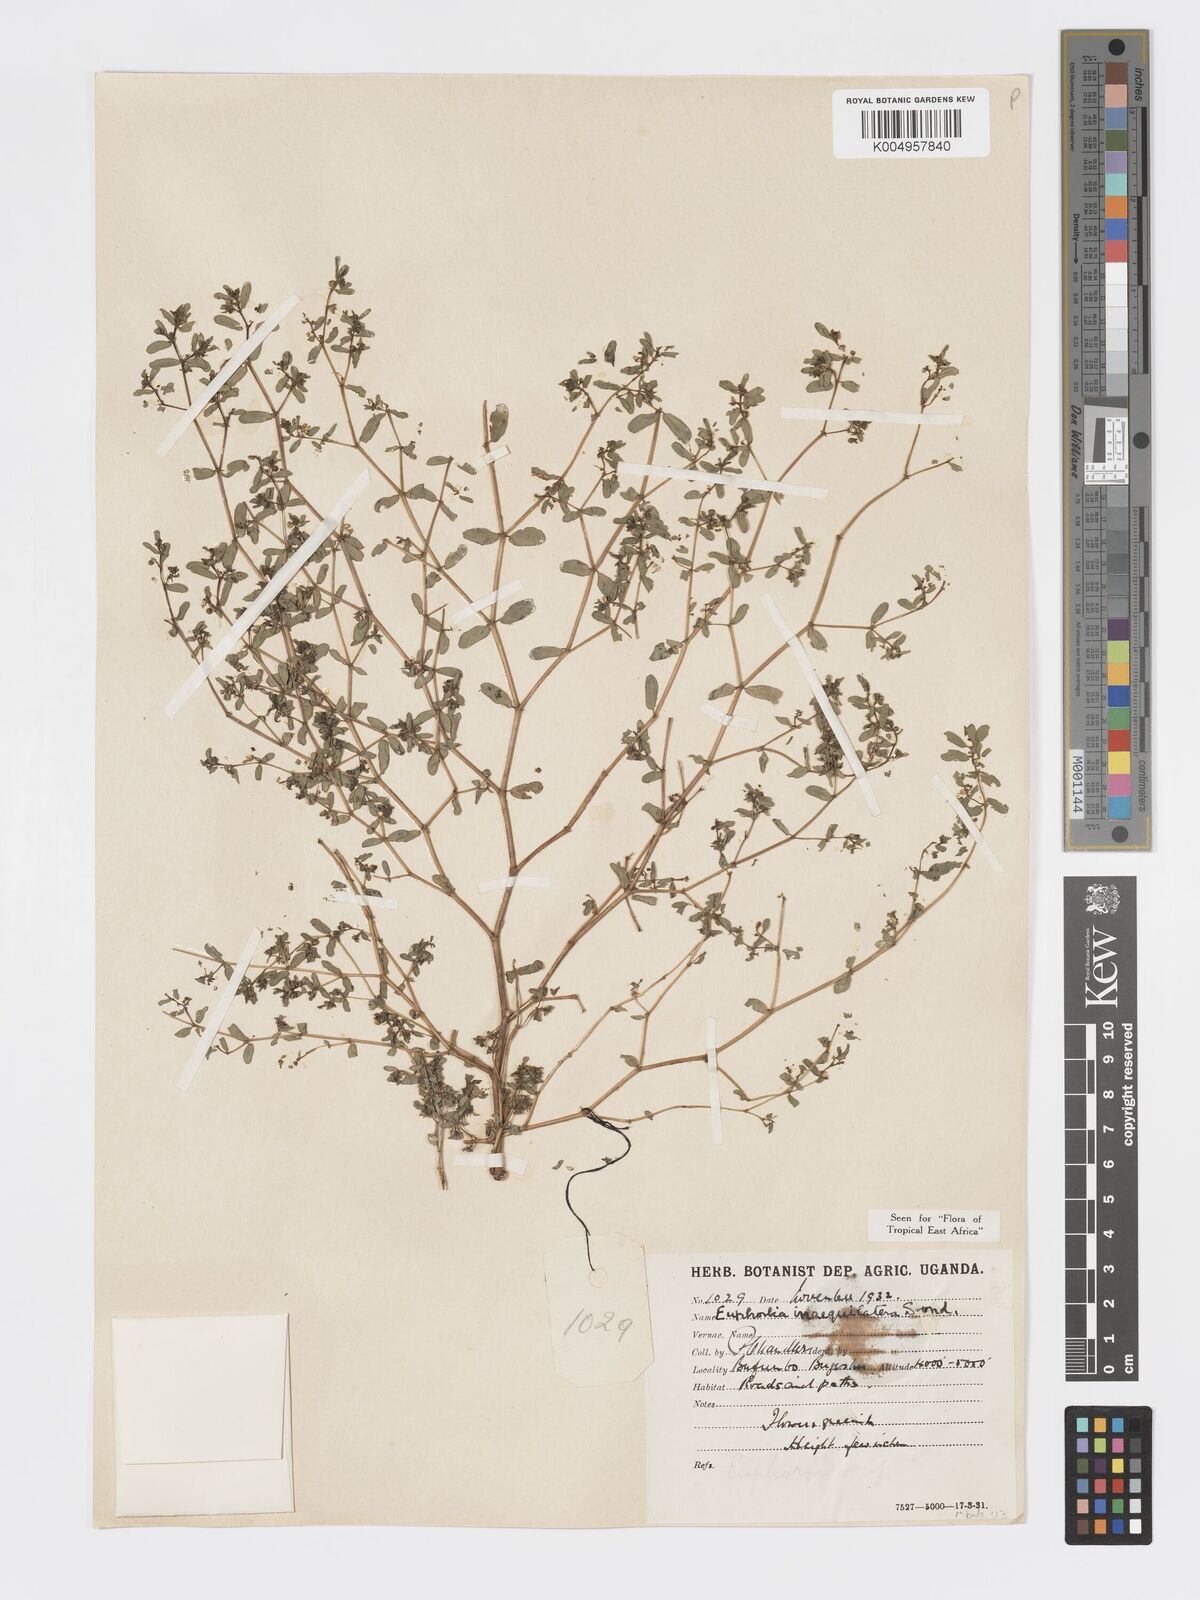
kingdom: Plantae
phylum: Tracheophyta
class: Magnoliopsida
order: Malpighiales
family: Euphorbiaceae
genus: Euphorbia
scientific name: Euphorbia inaequilatera
